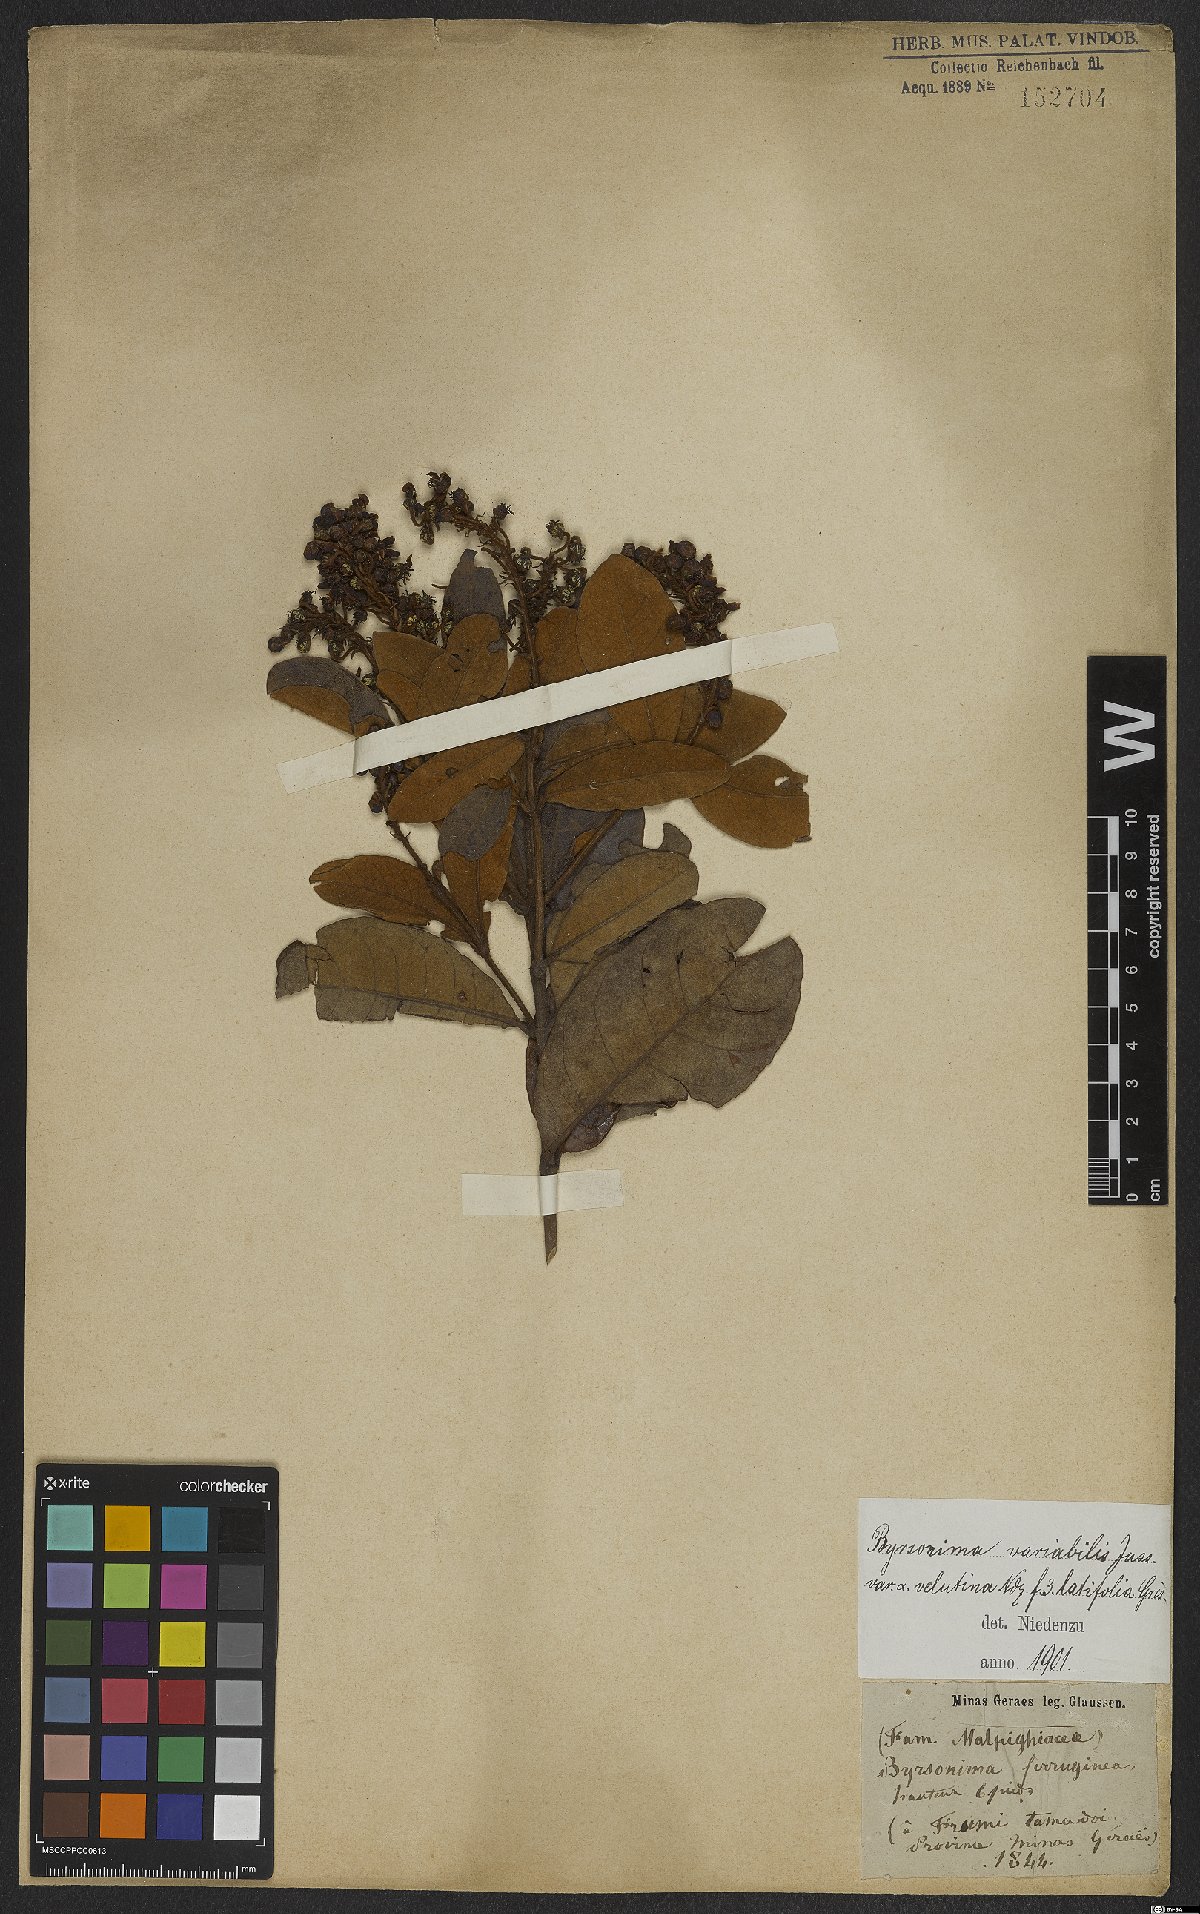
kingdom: Plantae
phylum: Tracheophyta
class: Magnoliopsida
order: Malpighiales
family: Malpighiaceae
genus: Byrsonima
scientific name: Byrsonima variabilis
